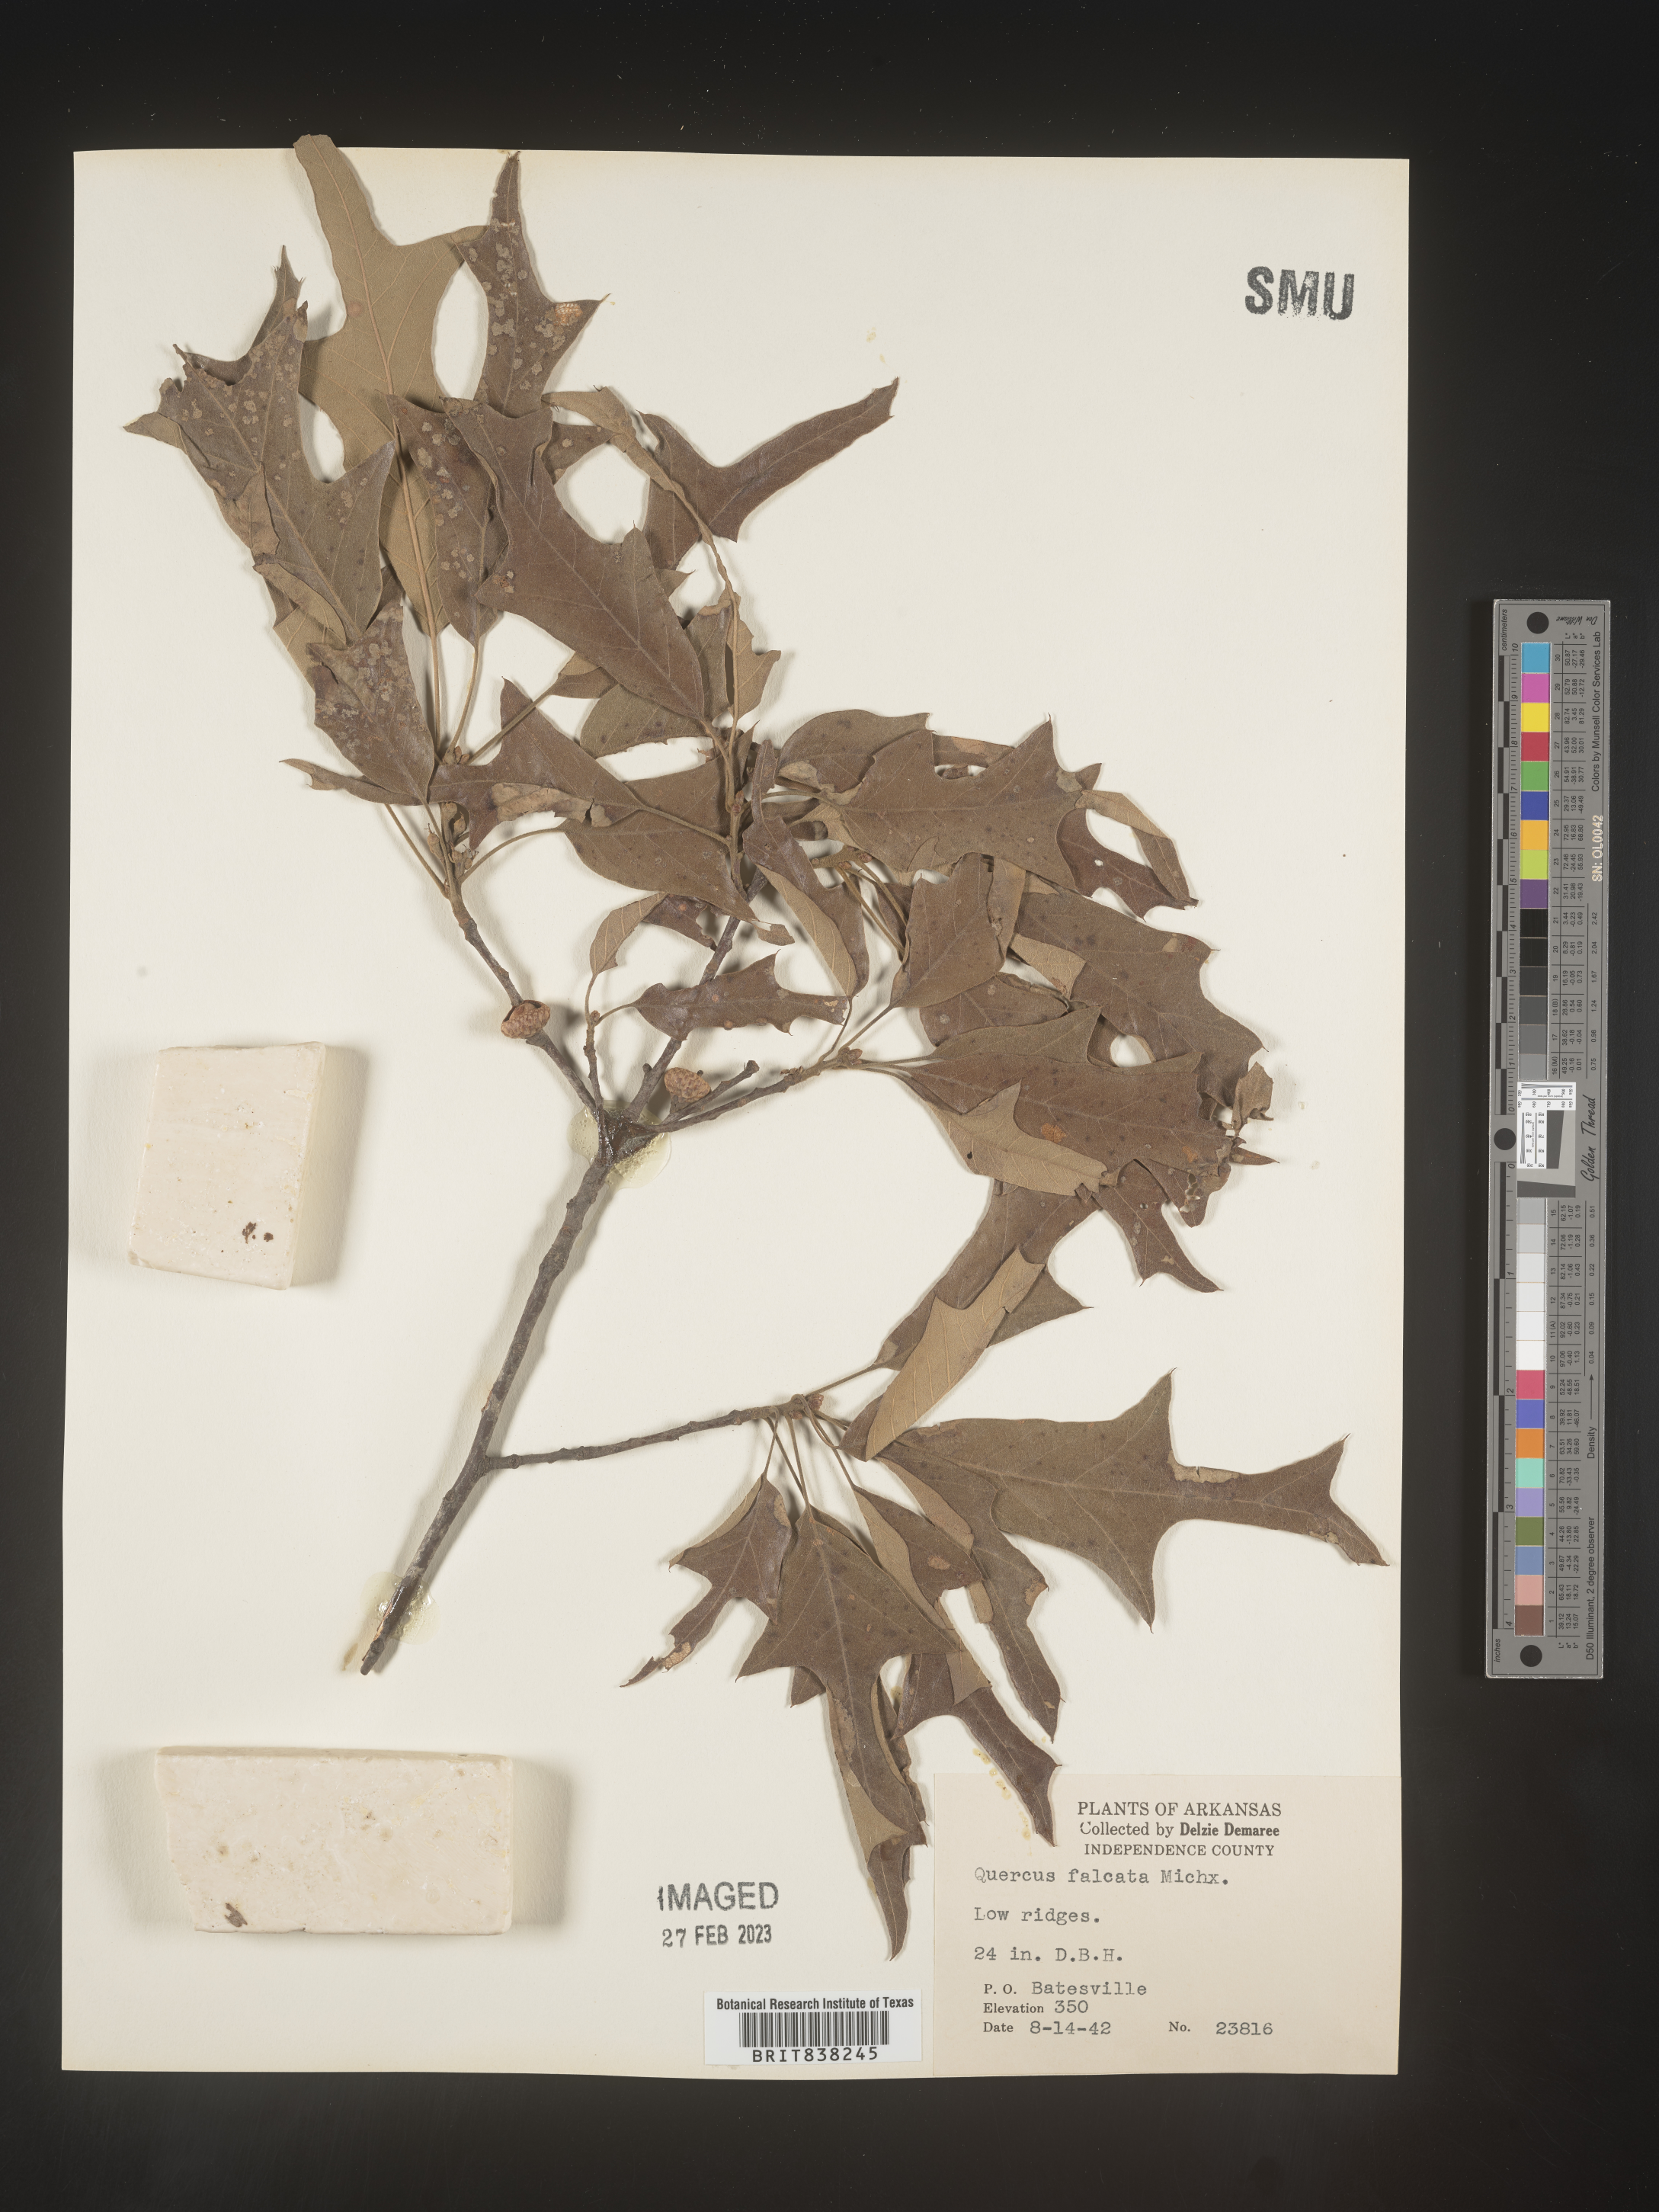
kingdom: Plantae
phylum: Tracheophyta
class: Magnoliopsida
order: Fagales
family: Fagaceae
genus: Quercus
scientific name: Quercus falcata
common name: Southern red oak
